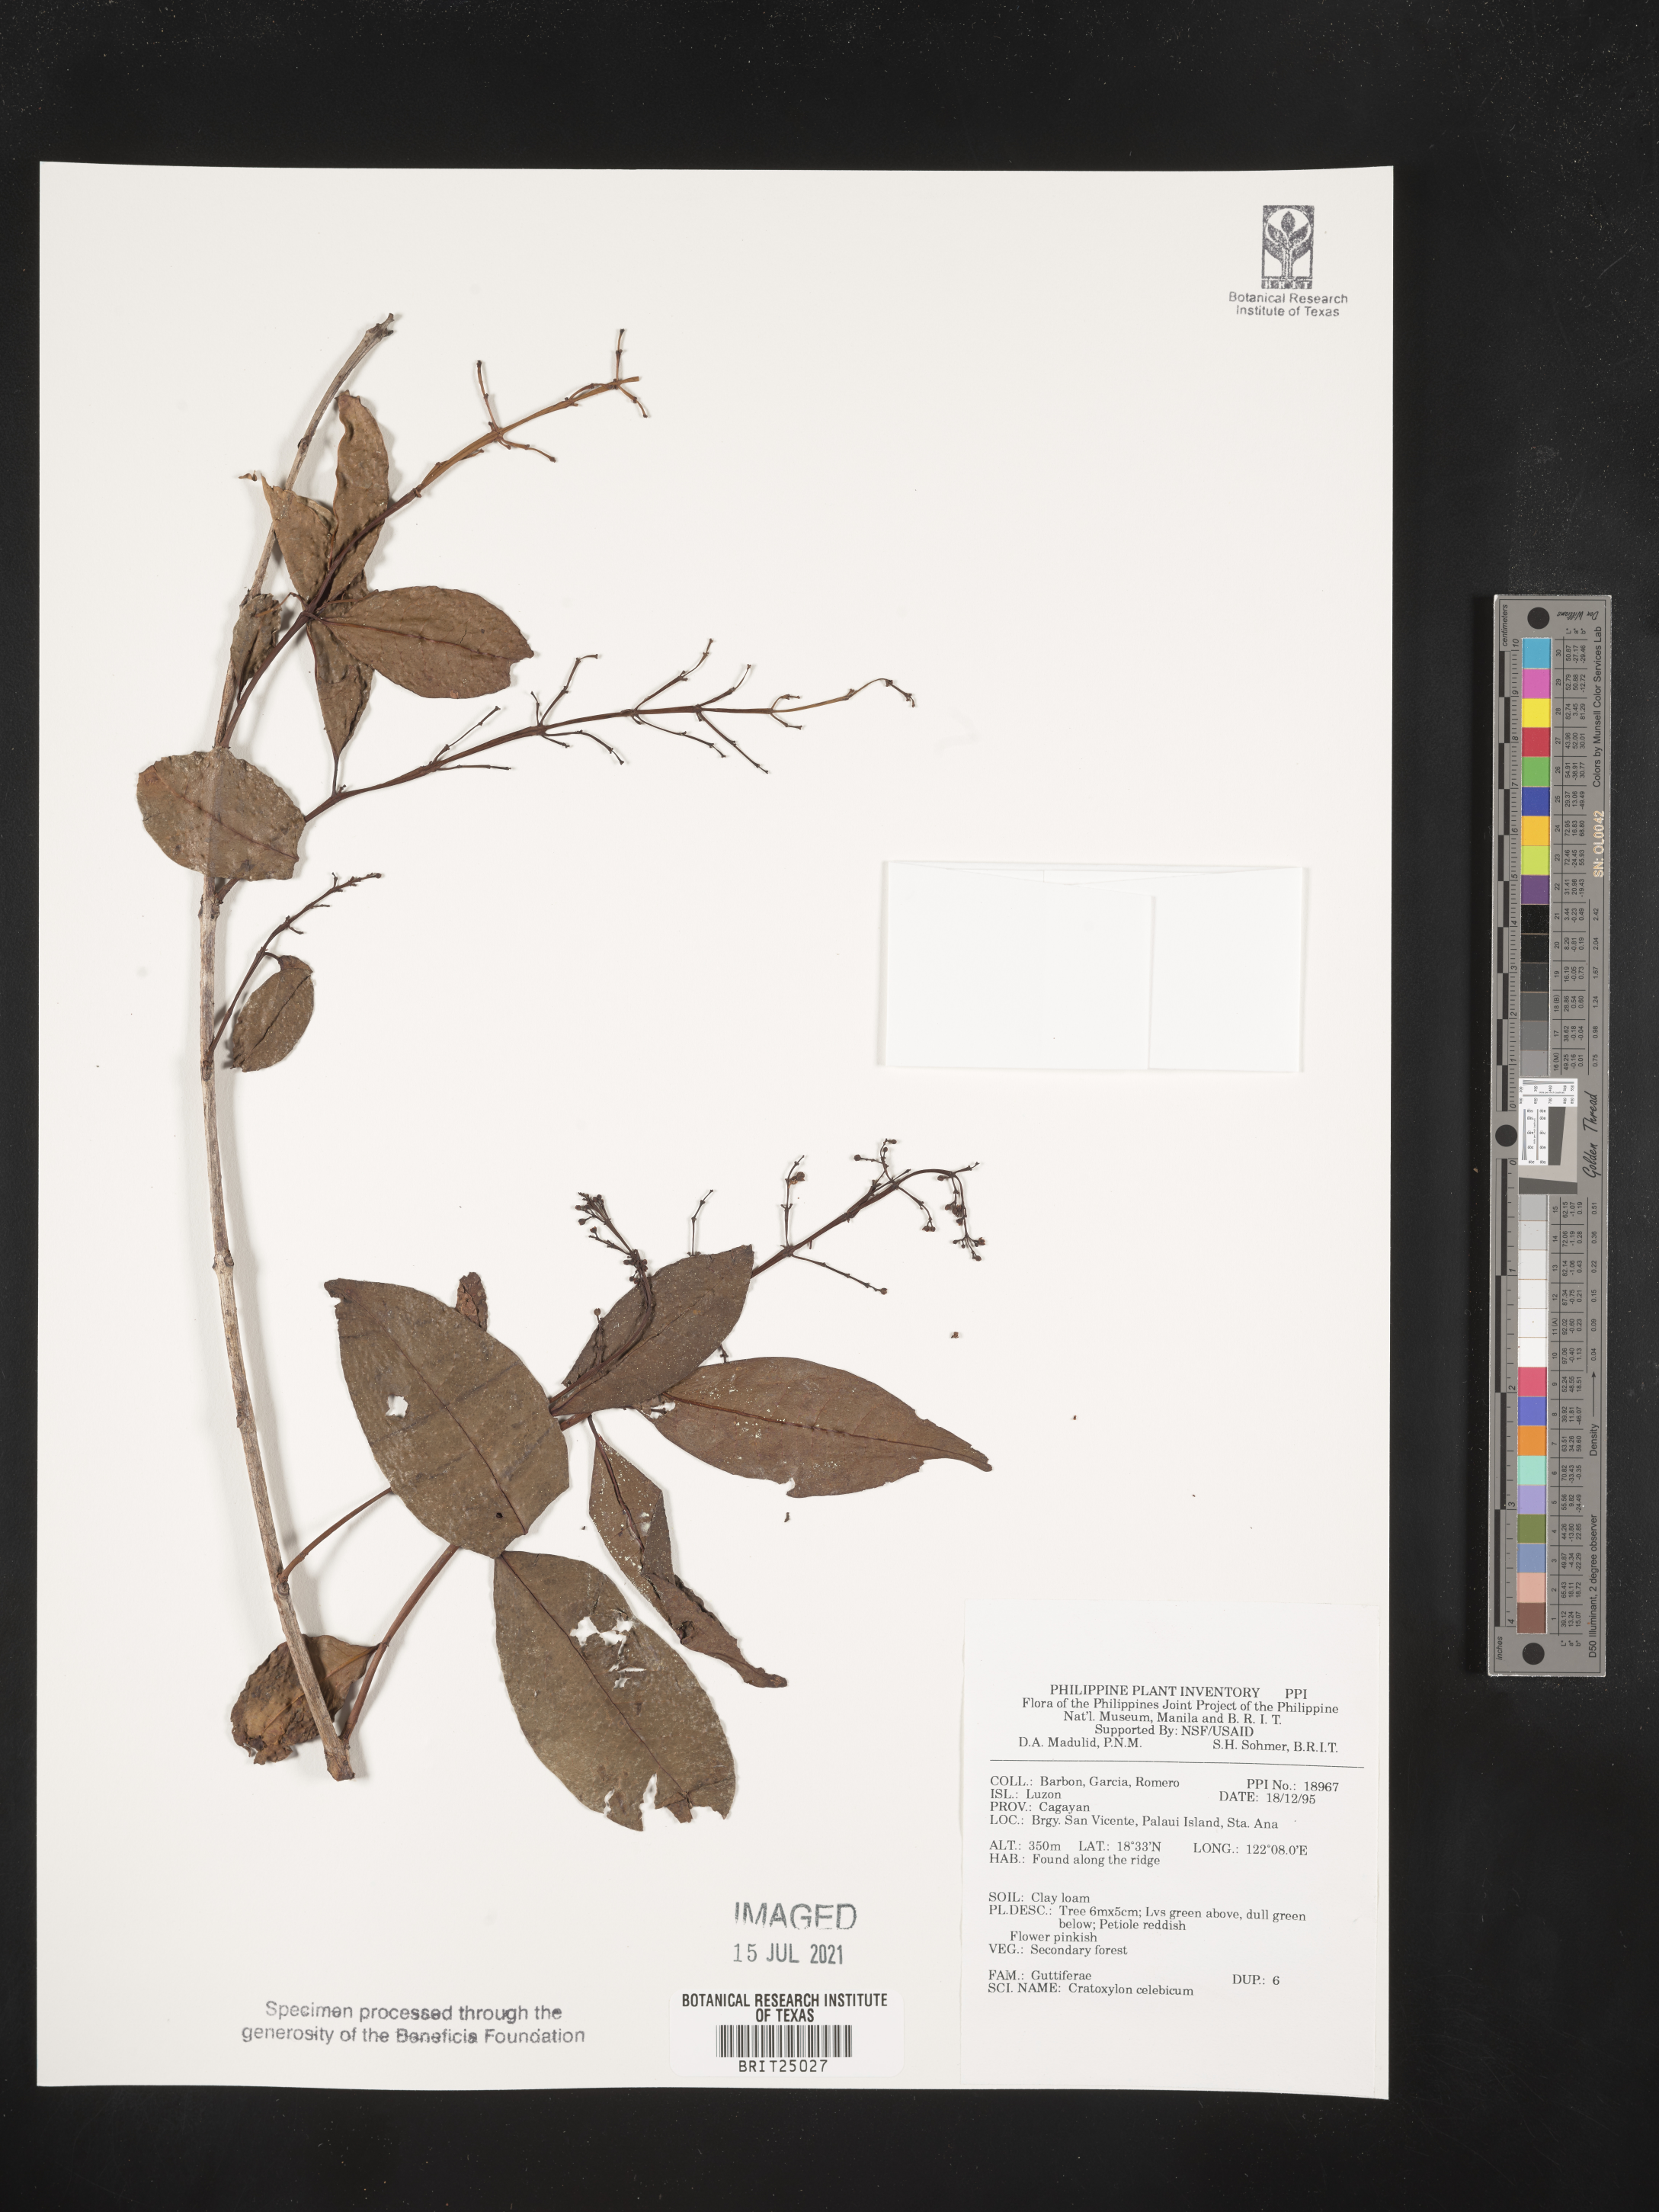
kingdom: Plantae
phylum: Tracheophyta
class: Magnoliopsida
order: Malpighiales
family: Hypericaceae
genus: Cratoxylum
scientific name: Cratoxylum sumatranum
